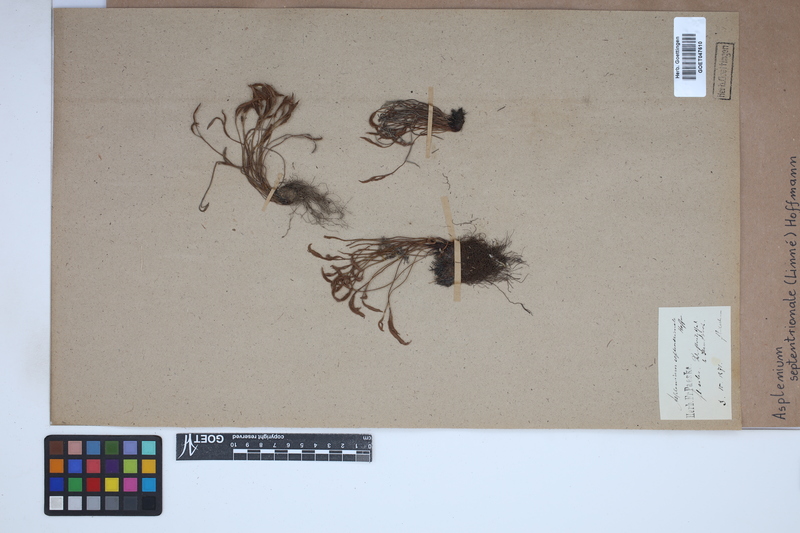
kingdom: Plantae
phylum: Tracheophyta
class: Polypodiopsida
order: Polypodiales
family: Aspleniaceae
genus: Asplenium
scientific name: Asplenium septentrionale
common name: Forked spleenwort
